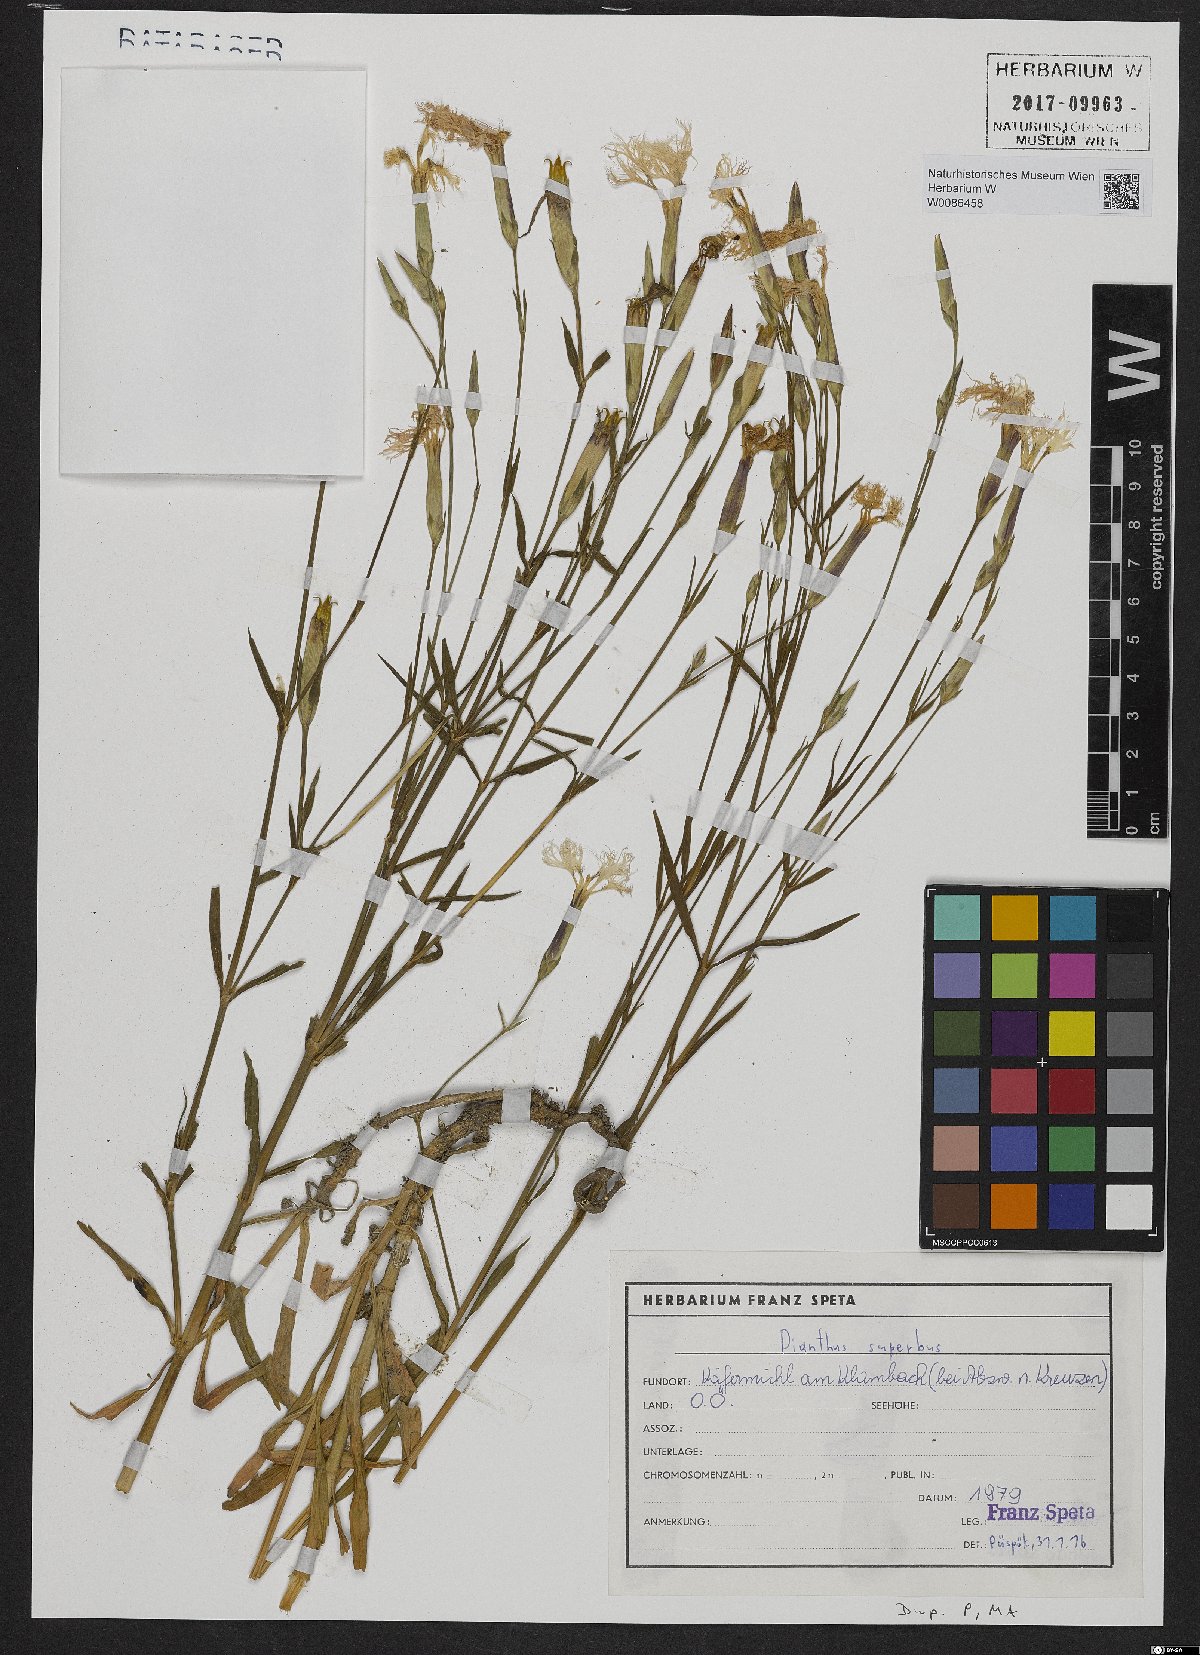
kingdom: Plantae
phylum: Tracheophyta
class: Magnoliopsida
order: Caryophyllales
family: Caryophyllaceae
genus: Dianthus
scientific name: Dianthus superbus
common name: Fringed pink
